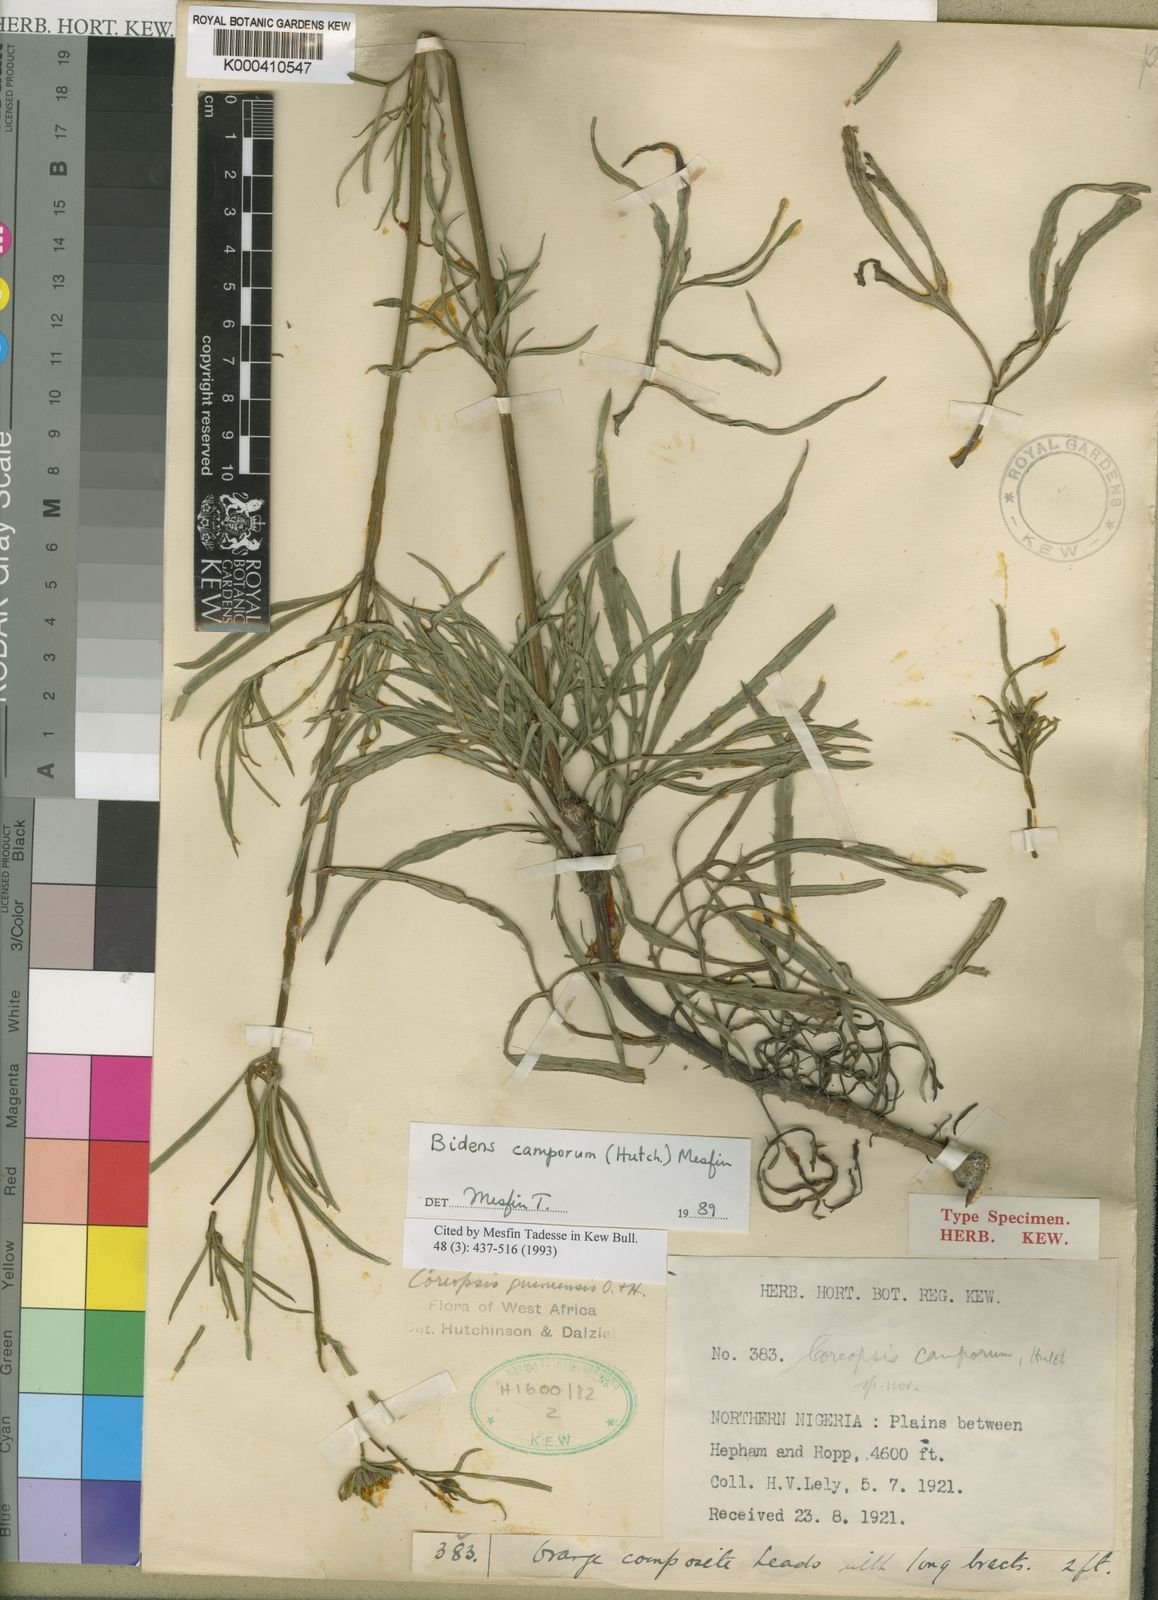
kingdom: Plantae
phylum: Tracheophyta
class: Magnoliopsida
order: Asterales
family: Asteraceae
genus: Bidens
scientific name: Bidens occidentalis
